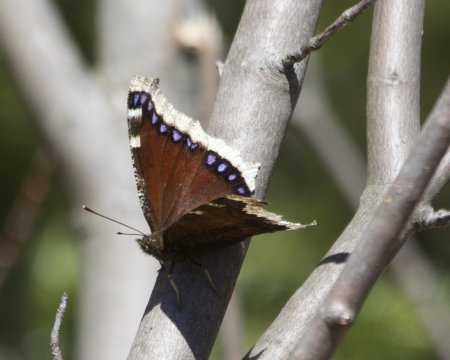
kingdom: Animalia
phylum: Arthropoda
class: Insecta
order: Lepidoptera
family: Nymphalidae
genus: Nymphalis
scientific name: Nymphalis antiopa
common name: Mourning Cloak
